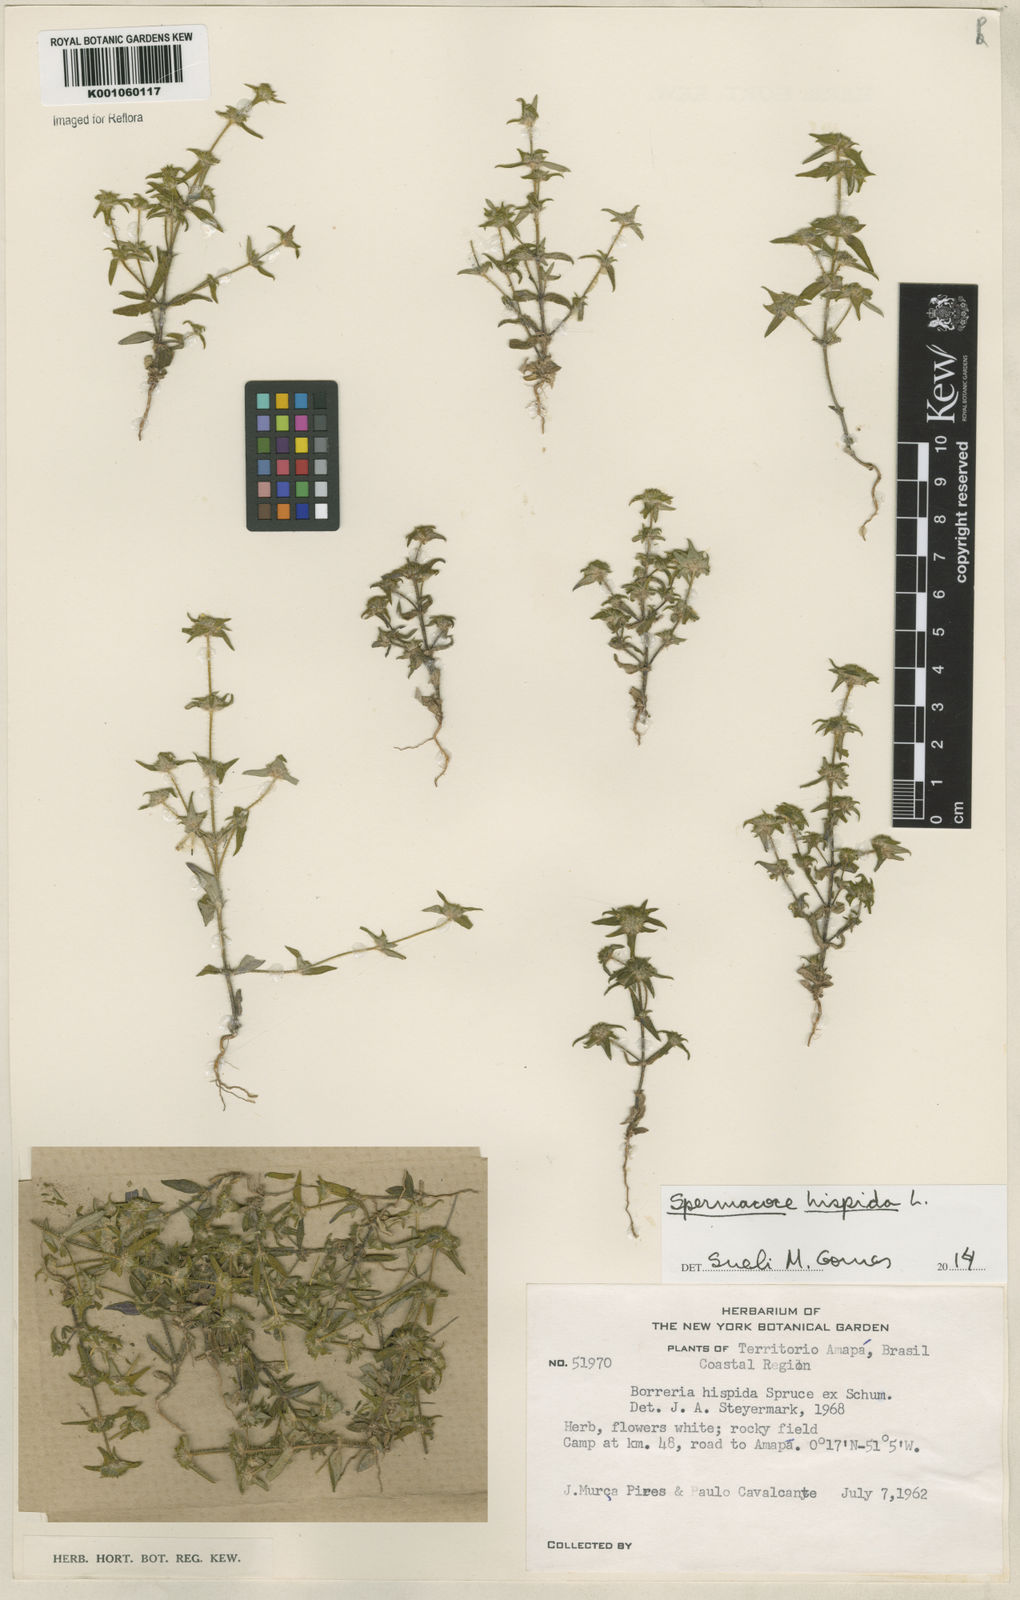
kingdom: Plantae
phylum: Tracheophyta
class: Magnoliopsida
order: Gentianales
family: Rubiaceae
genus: Spermacoce
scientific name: Spermacoce hispida
